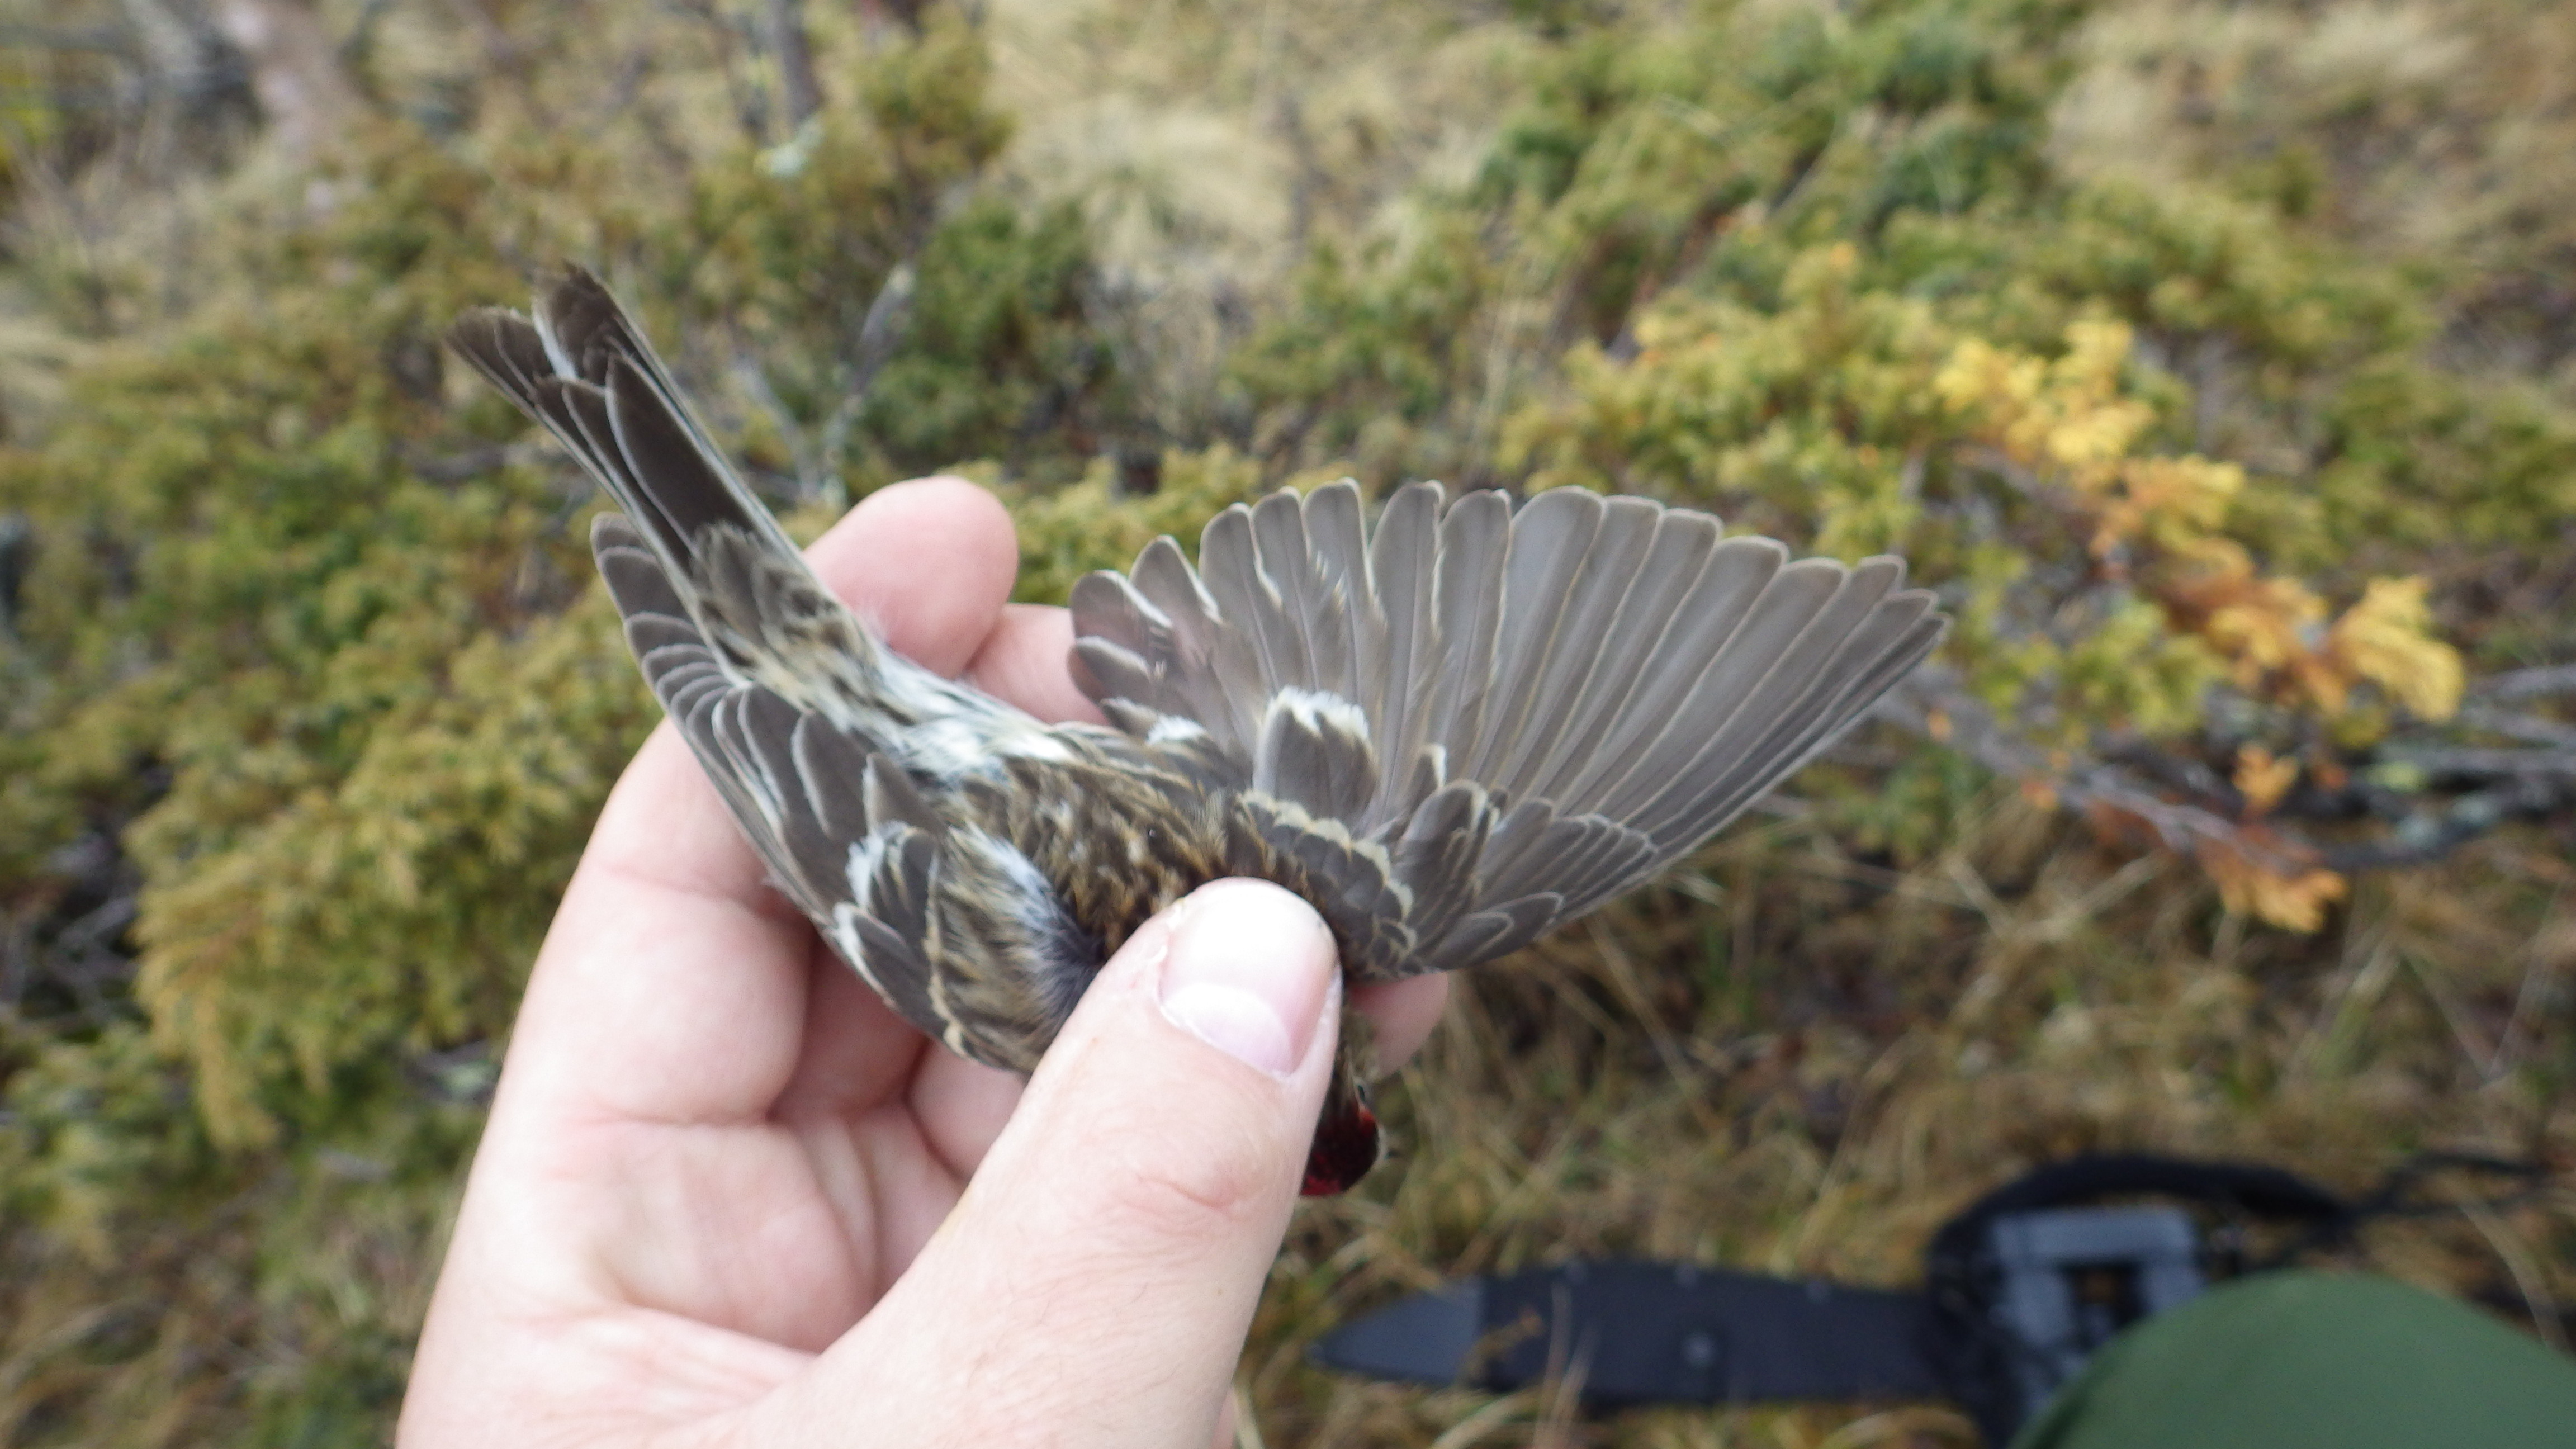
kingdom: Animalia
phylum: Chordata
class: Aves
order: Passeriformes
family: Fringillidae
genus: Acanthis
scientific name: Acanthis flammea
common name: Common redpoll
